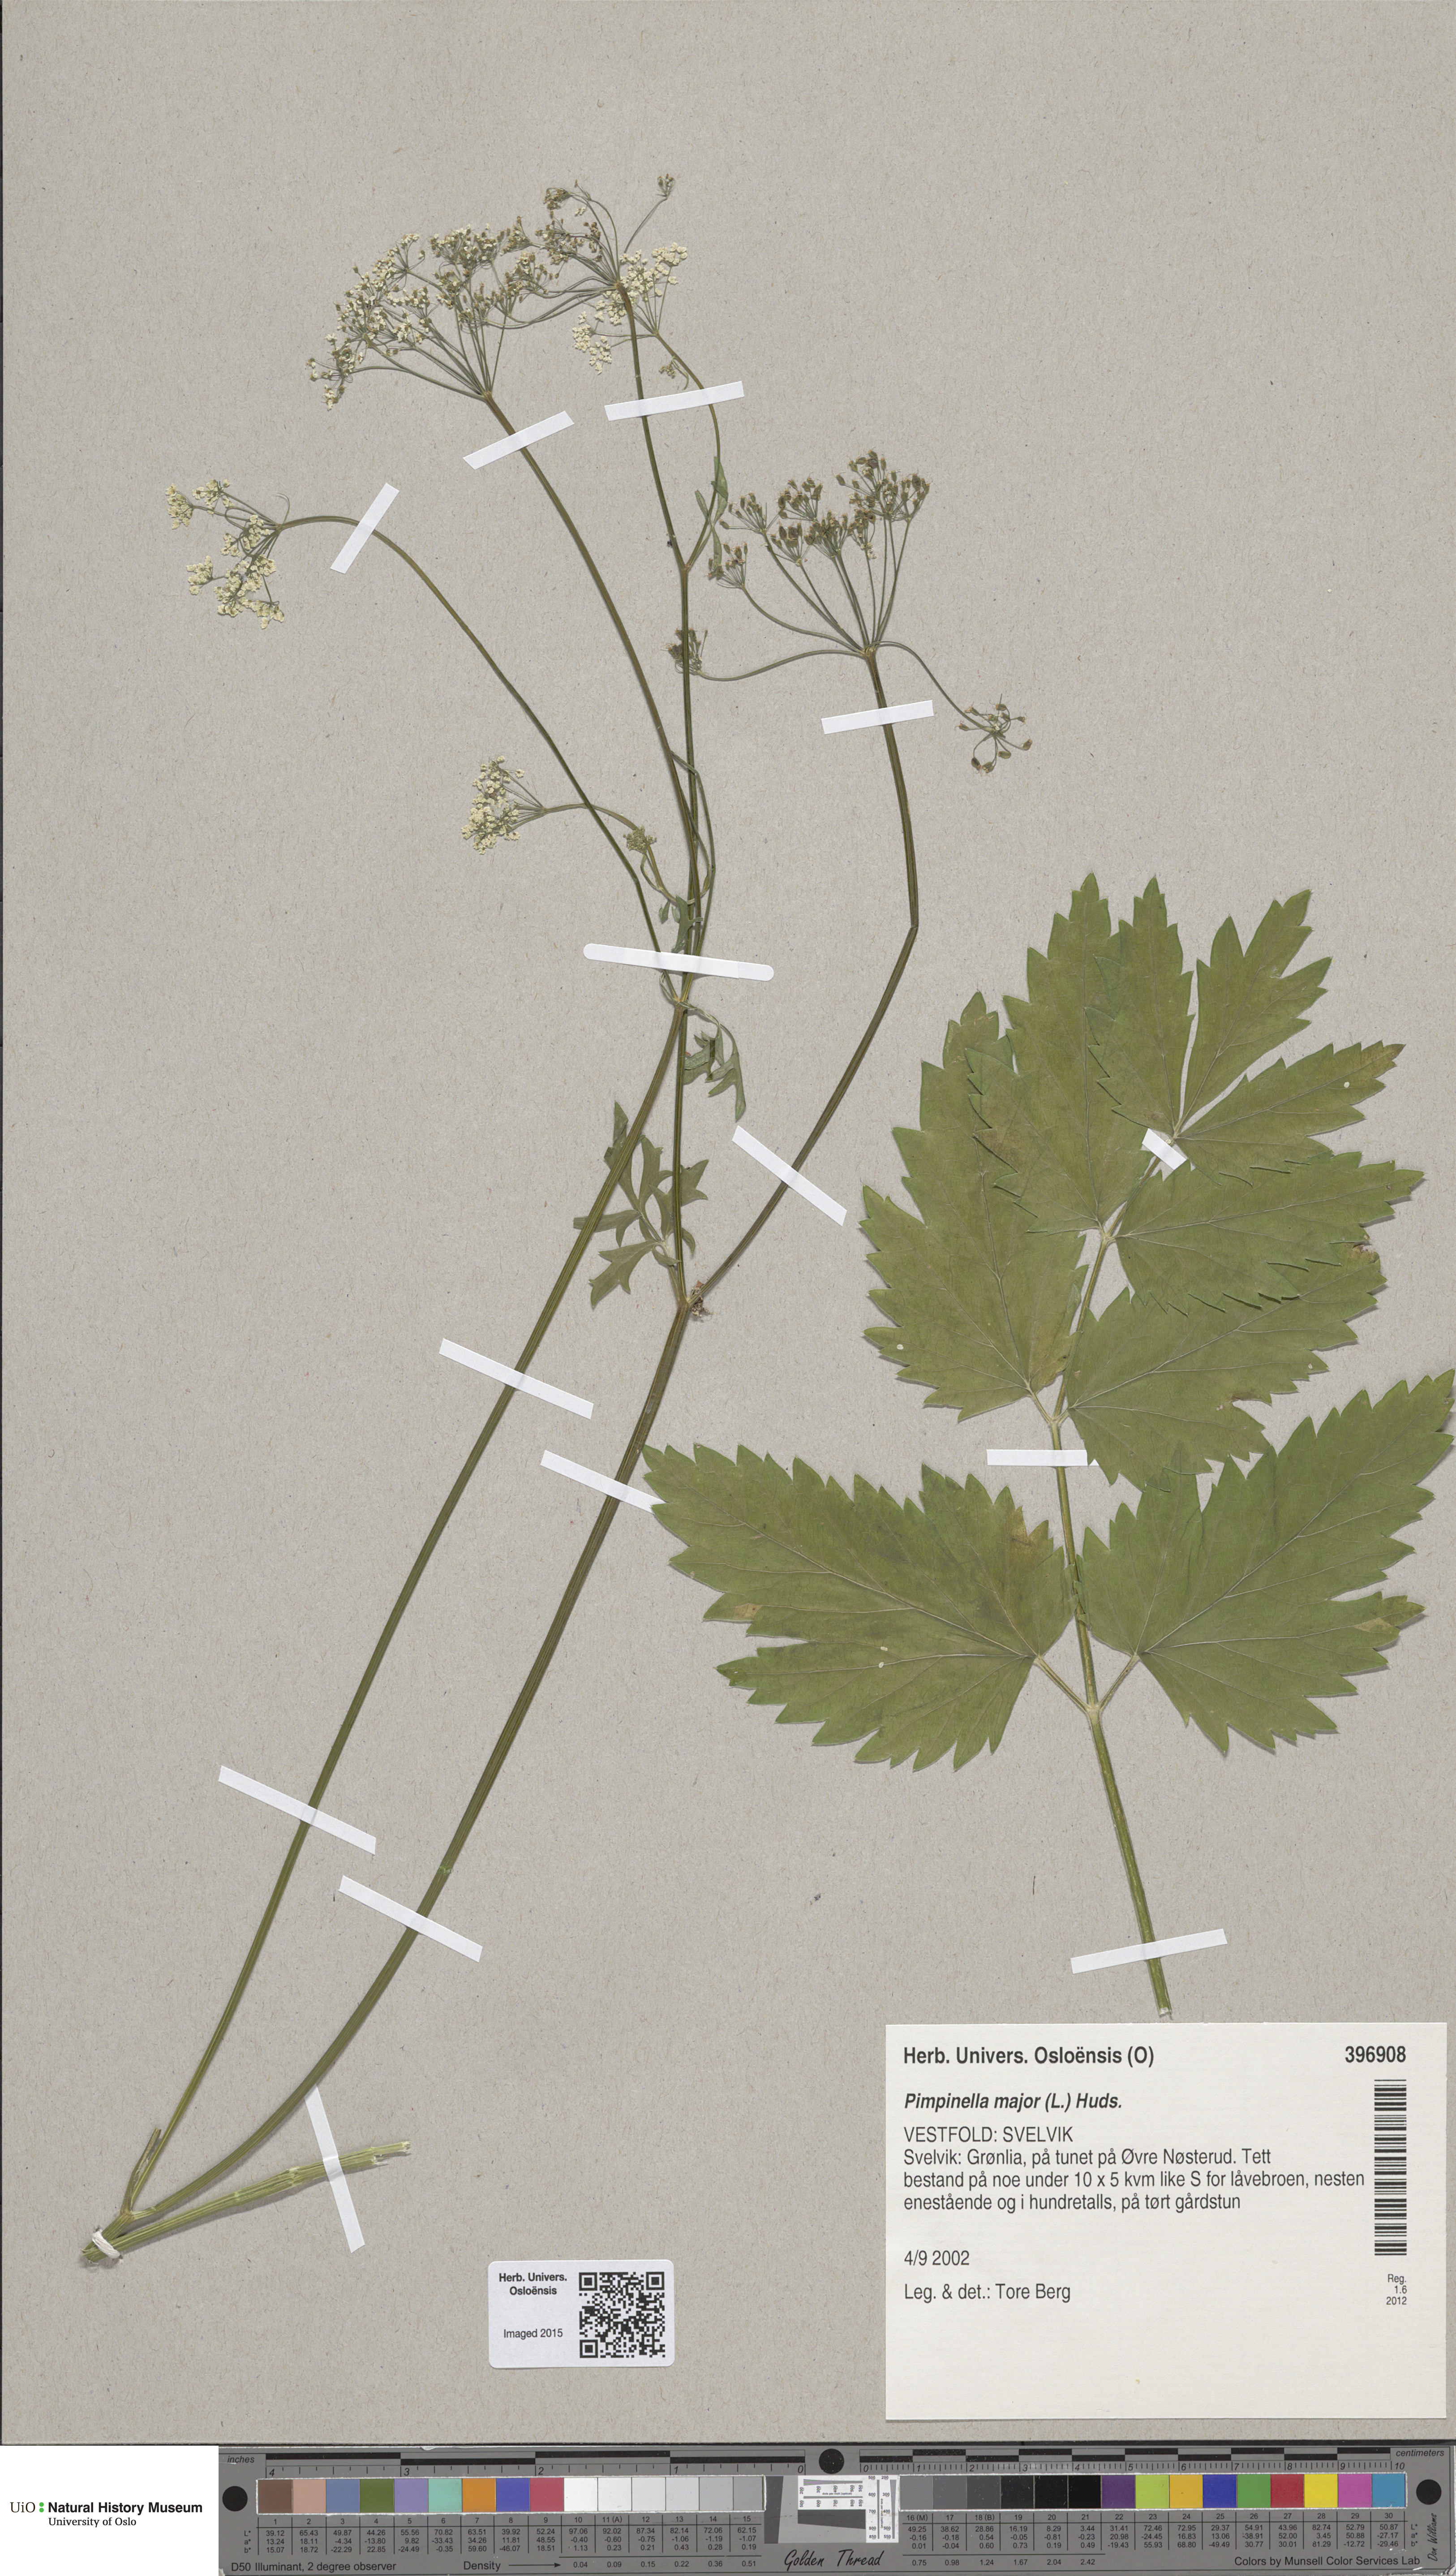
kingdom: Plantae
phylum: Tracheophyta
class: Magnoliopsida
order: Apiales
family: Apiaceae
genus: Pimpinella
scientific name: Pimpinella major
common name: Greater burnet-saxifrage
